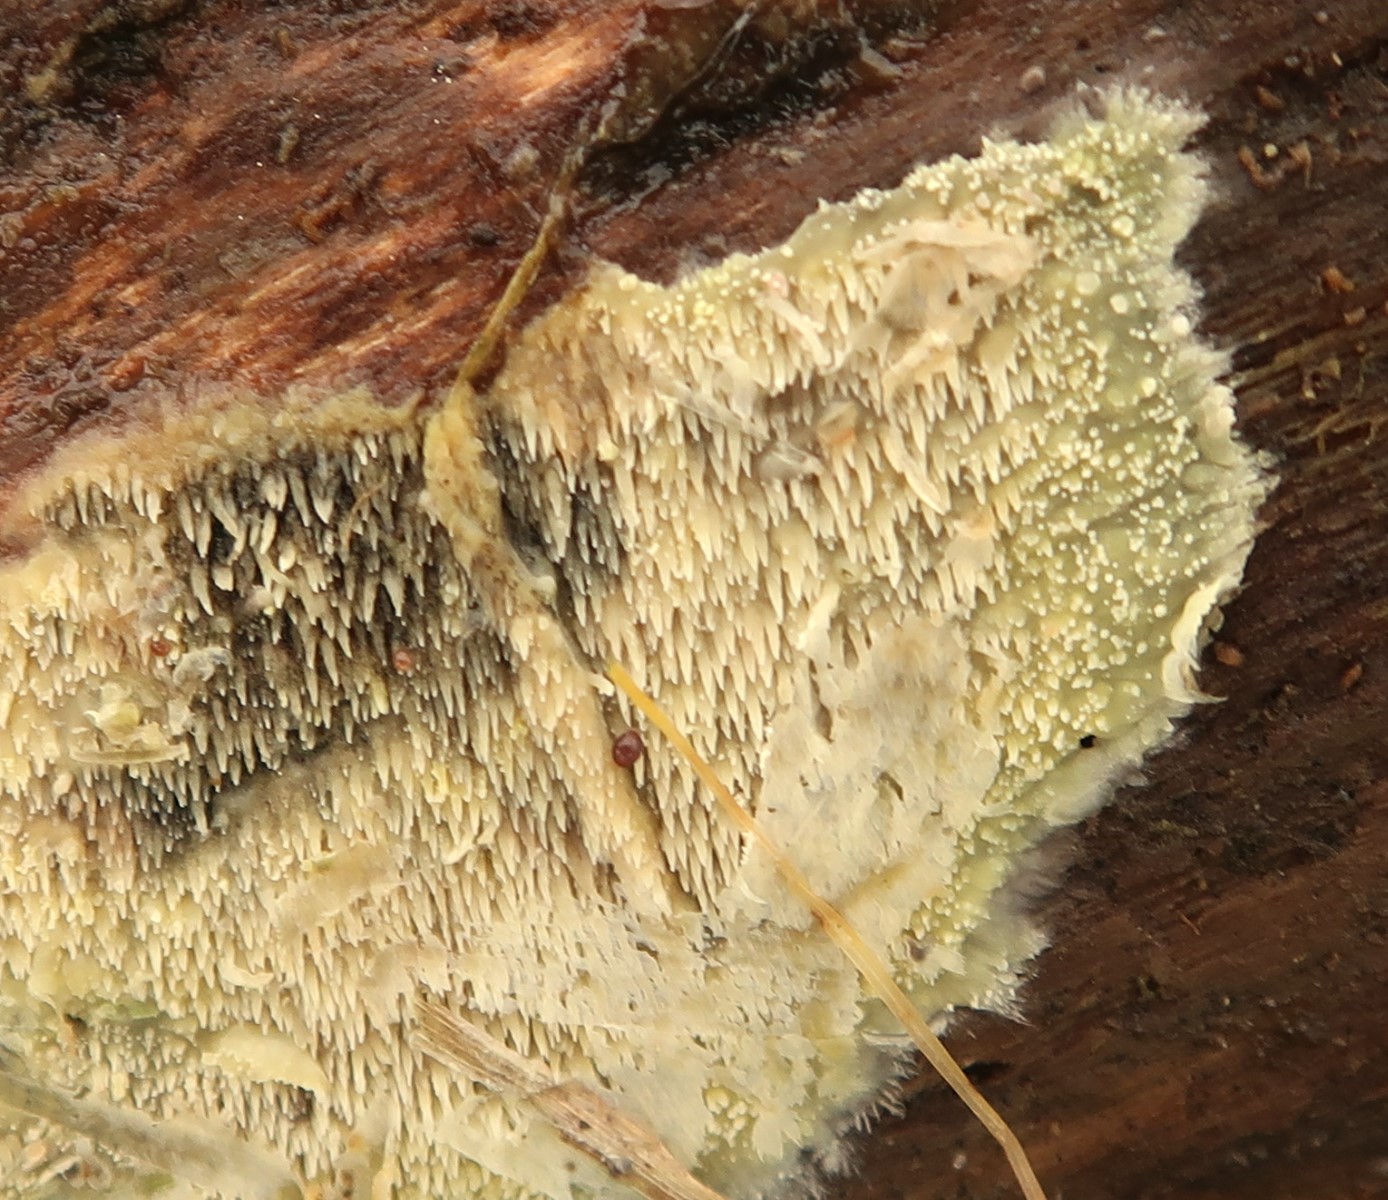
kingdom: Fungi
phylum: Basidiomycota
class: Agaricomycetes
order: Polyporales
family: Meruliaceae
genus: Mycoacia
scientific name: Mycoacia uda
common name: citrongul vokspig
